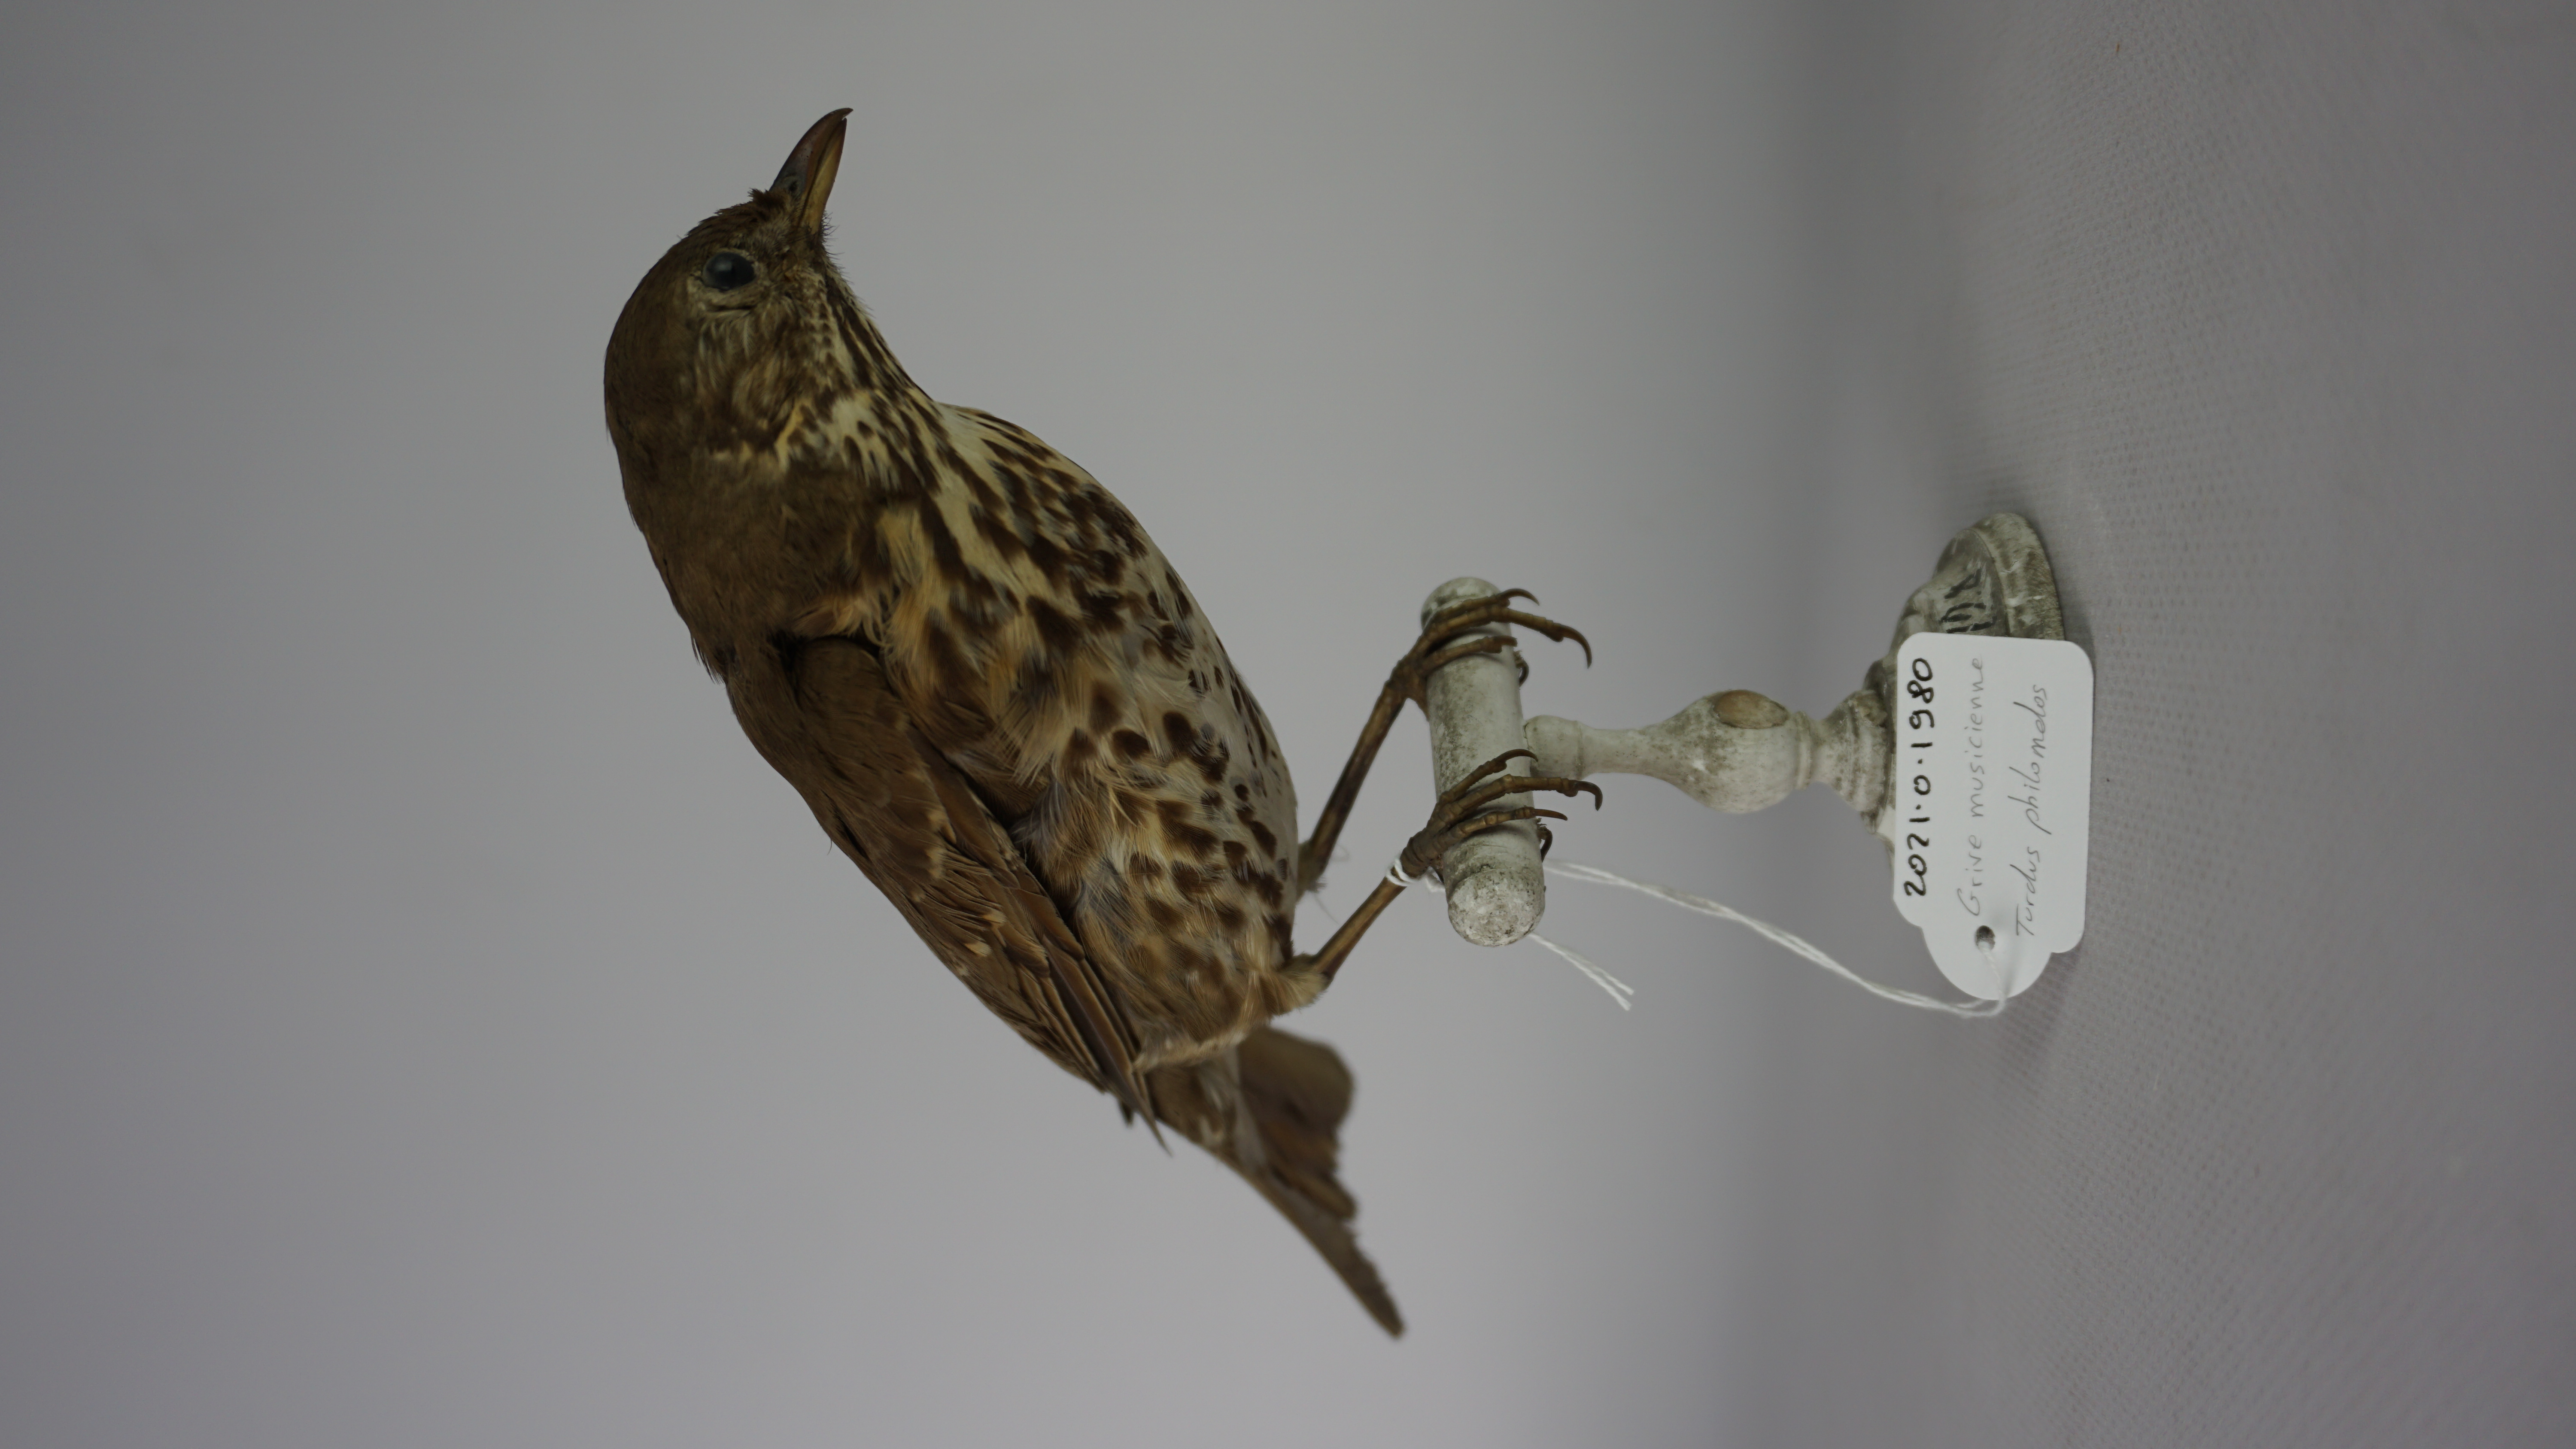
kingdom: Animalia
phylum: Chordata
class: Aves
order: Passeriformes
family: Turdidae
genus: Turdus
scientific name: Turdus philomelos
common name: Song thrush
